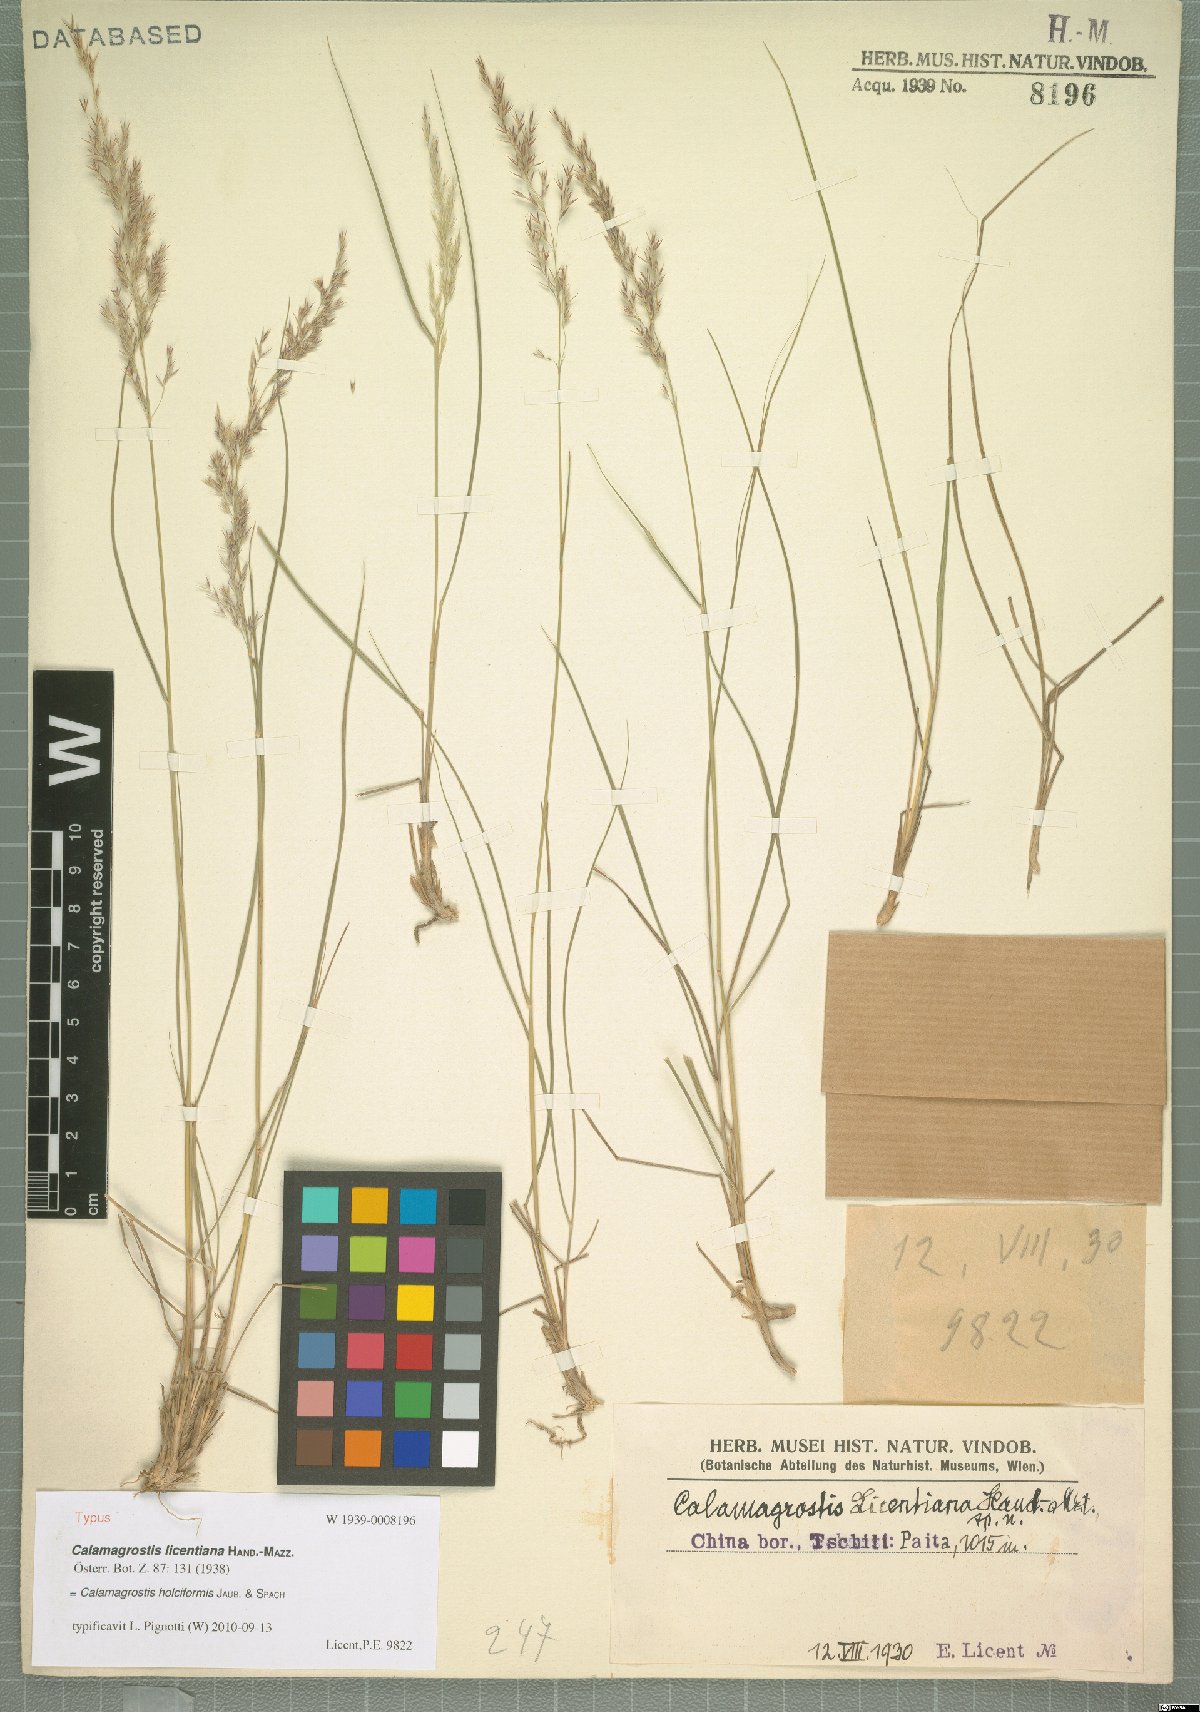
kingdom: Plantae
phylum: Tracheophyta
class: Liliopsida
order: Poales
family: Poaceae
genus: Calamagrostis
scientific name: Calamagrostis holciformis
